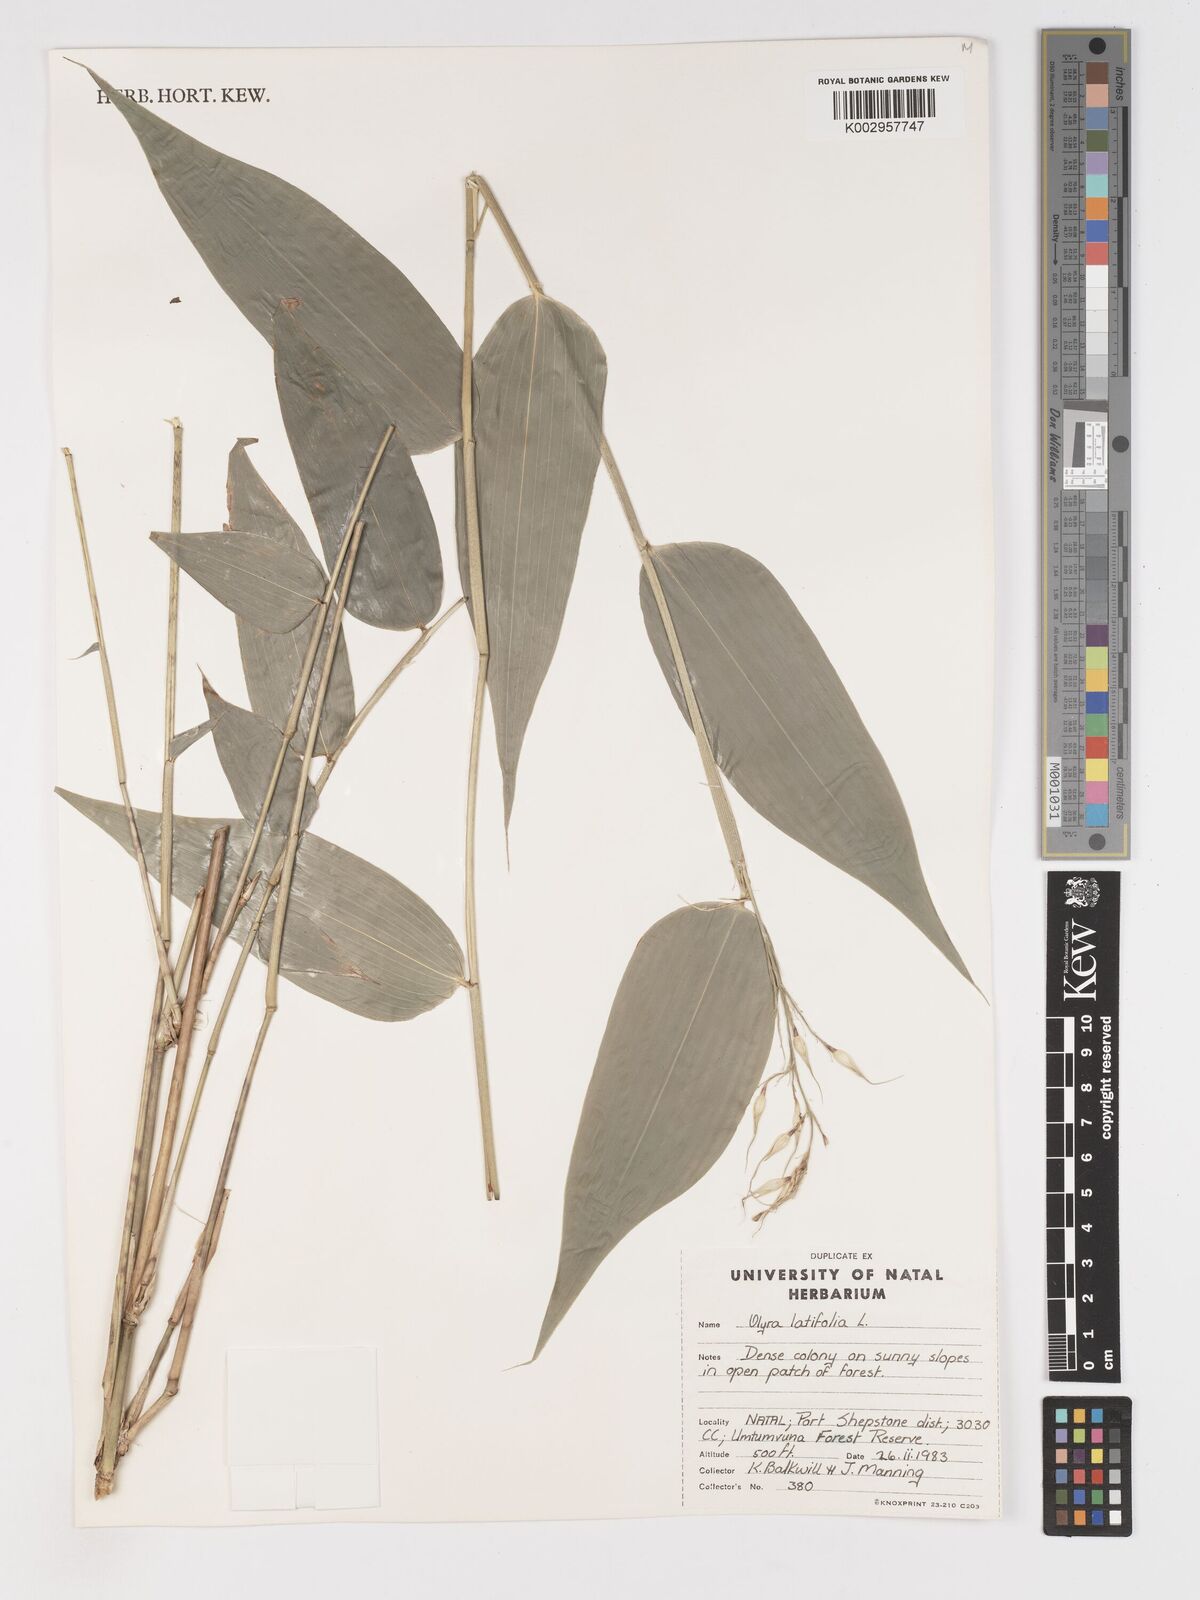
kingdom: Plantae
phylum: Tracheophyta
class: Liliopsida
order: Poales
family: Poaceae
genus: Olyra
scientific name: Olyra latifolia
